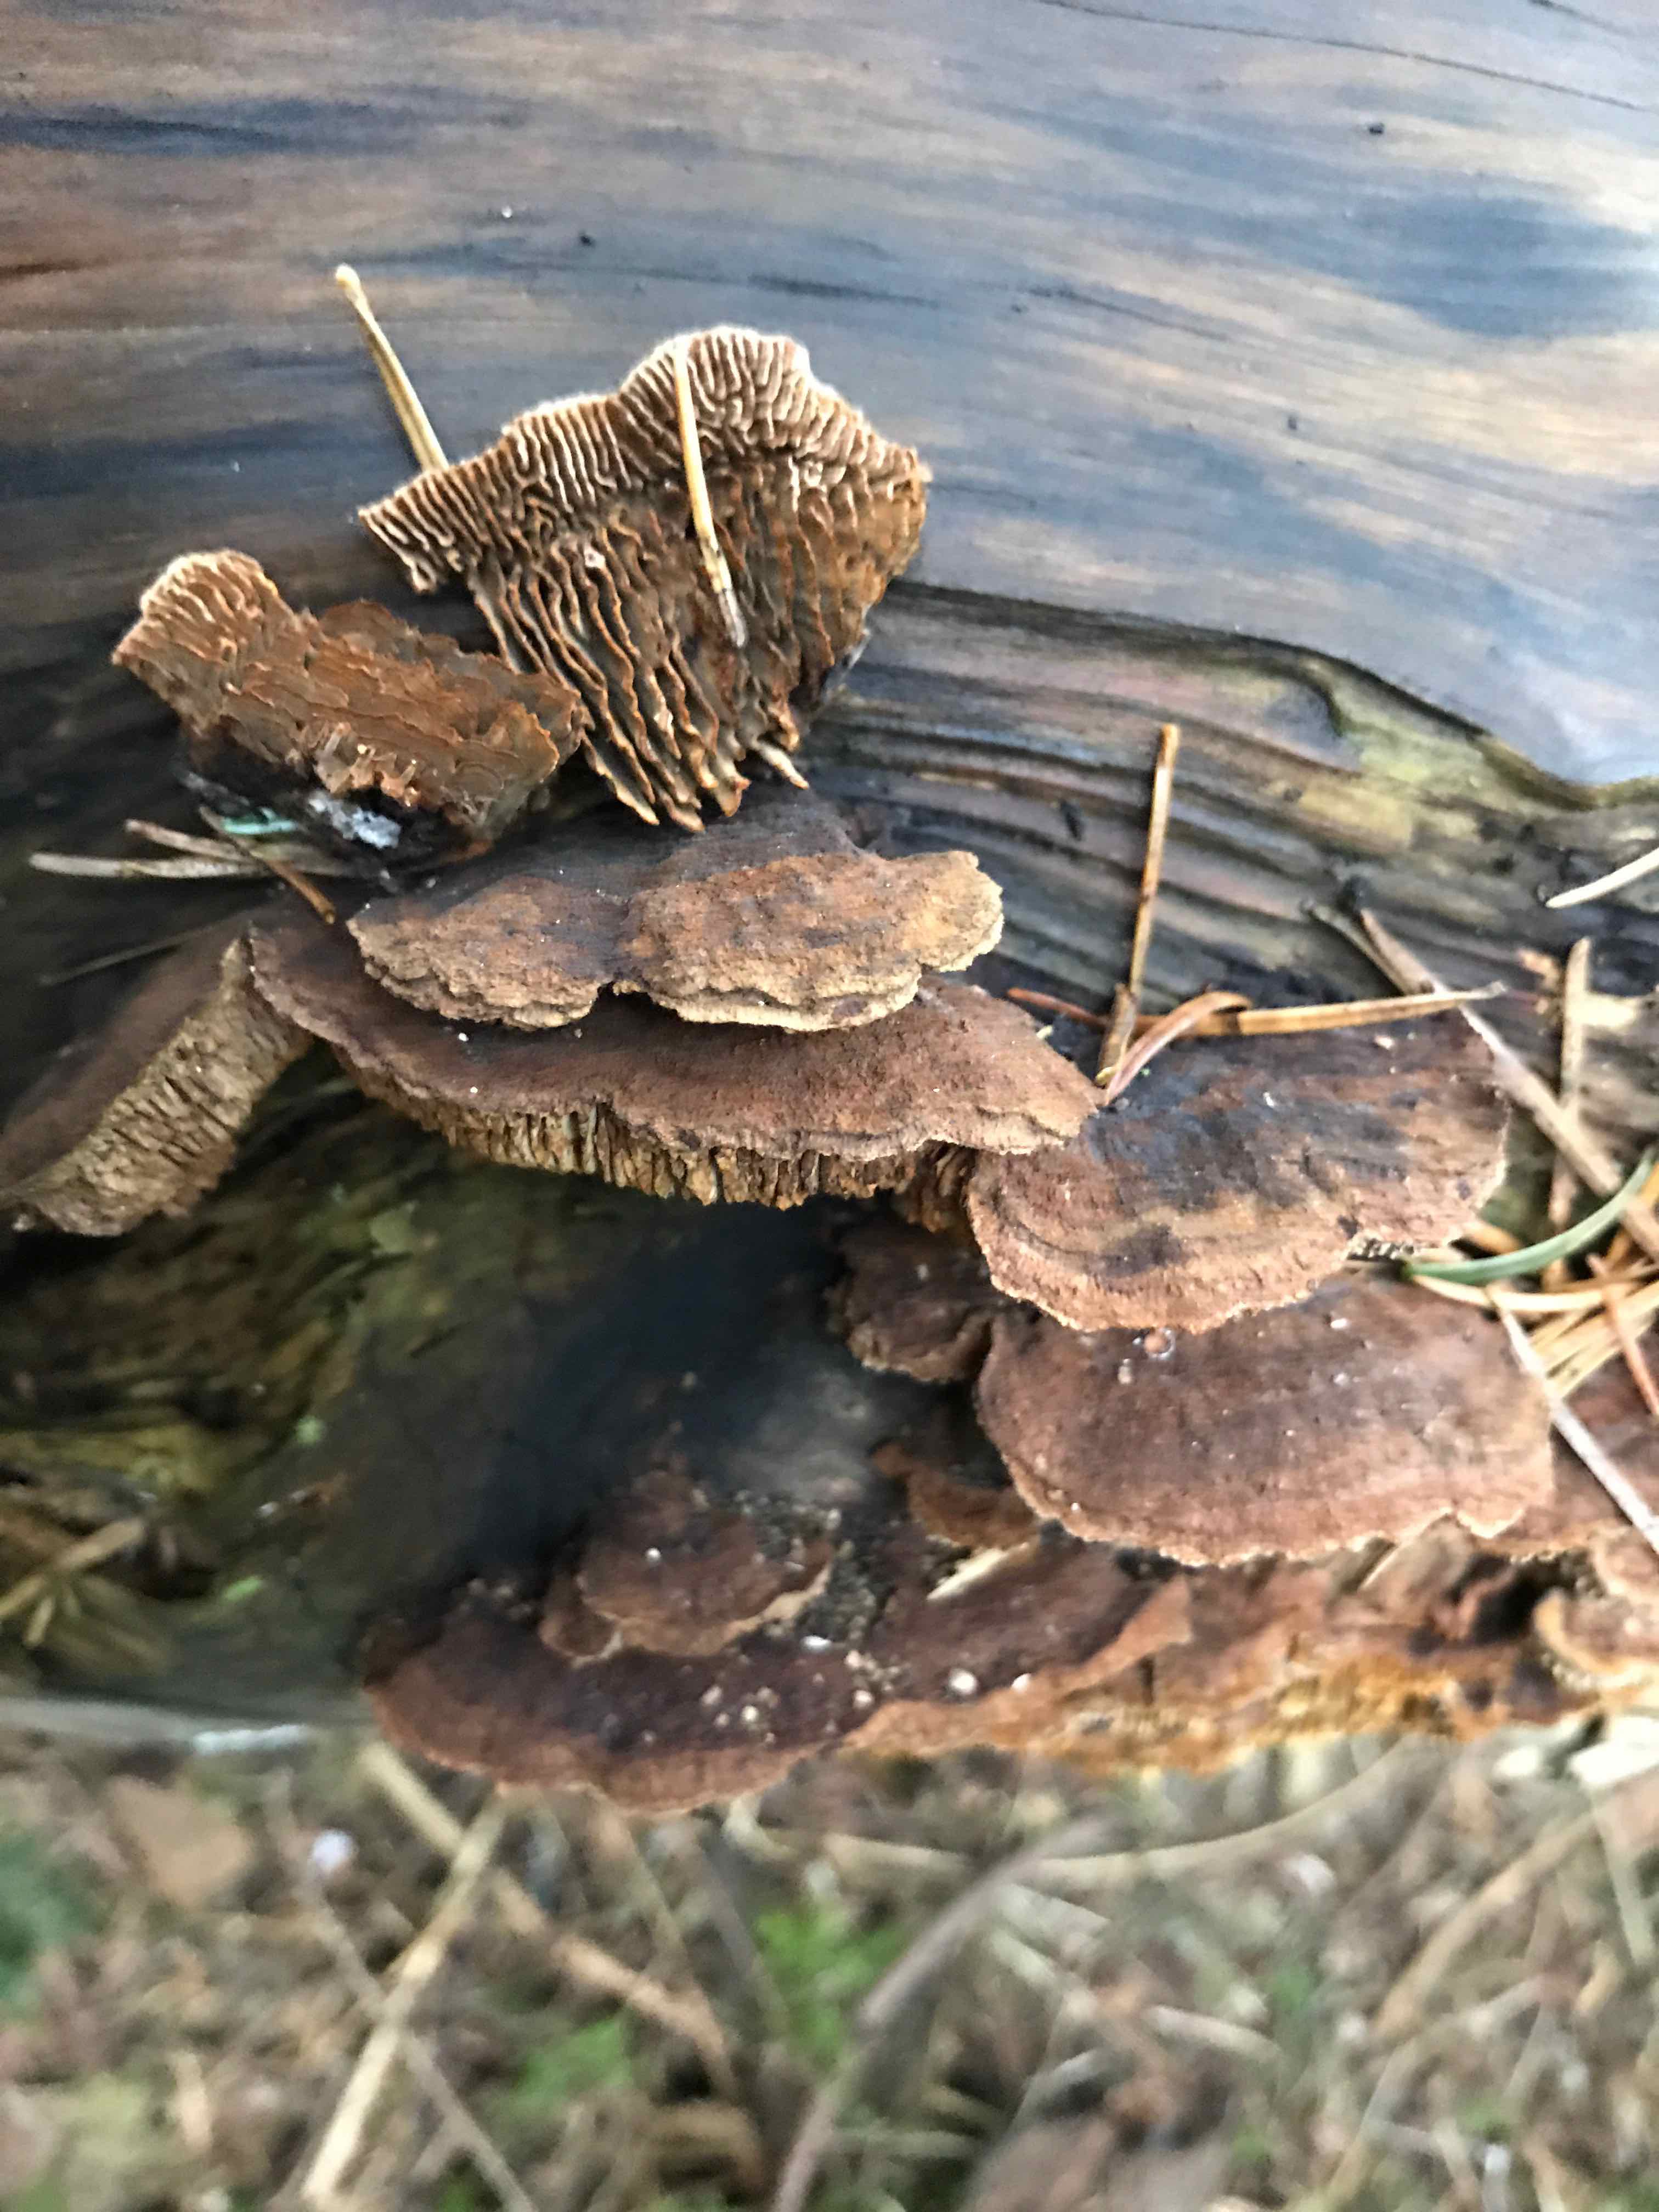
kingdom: Fungi
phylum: Basidiomycota
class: Agaricomycetes
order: Gloeophyllales
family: Gloeophyllaceae
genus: Gloeophyllum
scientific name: Gloeophyllum sepiarium
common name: fyrre-korkhat
